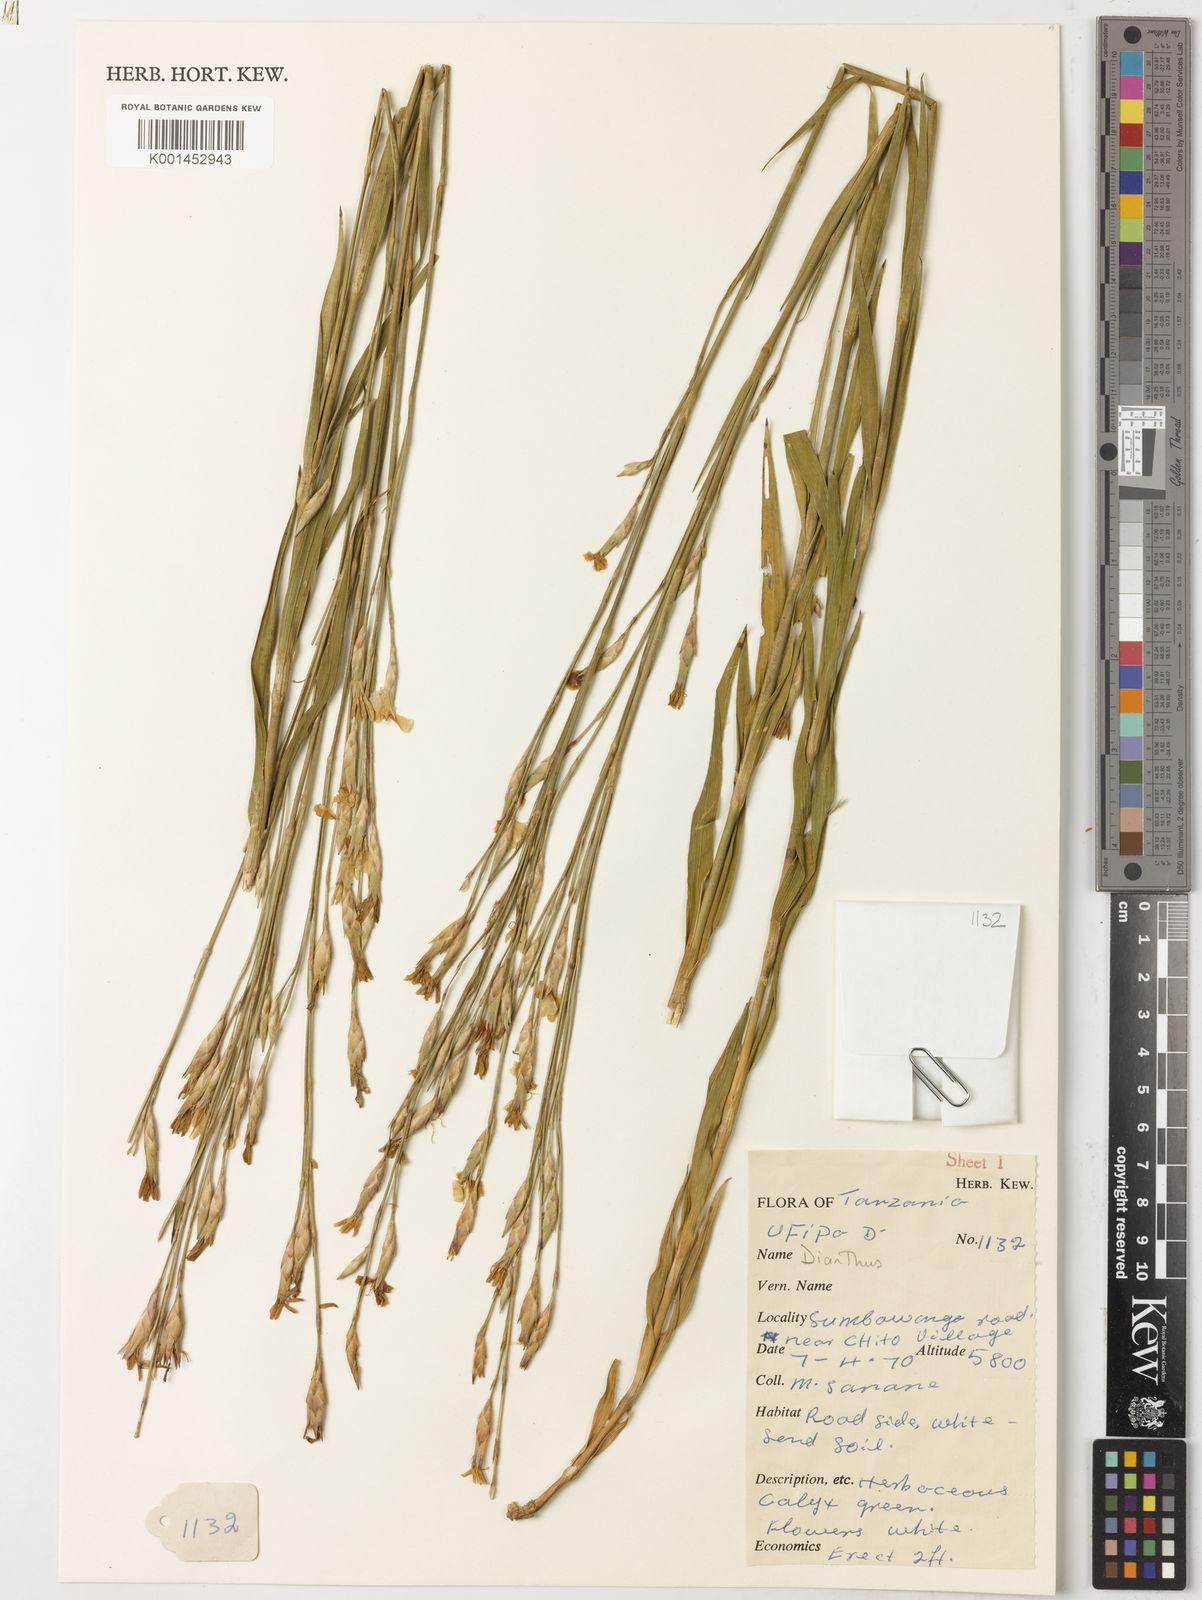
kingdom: Plantae
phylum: Tracheophyta
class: Magnoliopsida
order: Caryophyllales
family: Caryophyllaceae
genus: Dianthus
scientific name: Dianthus
